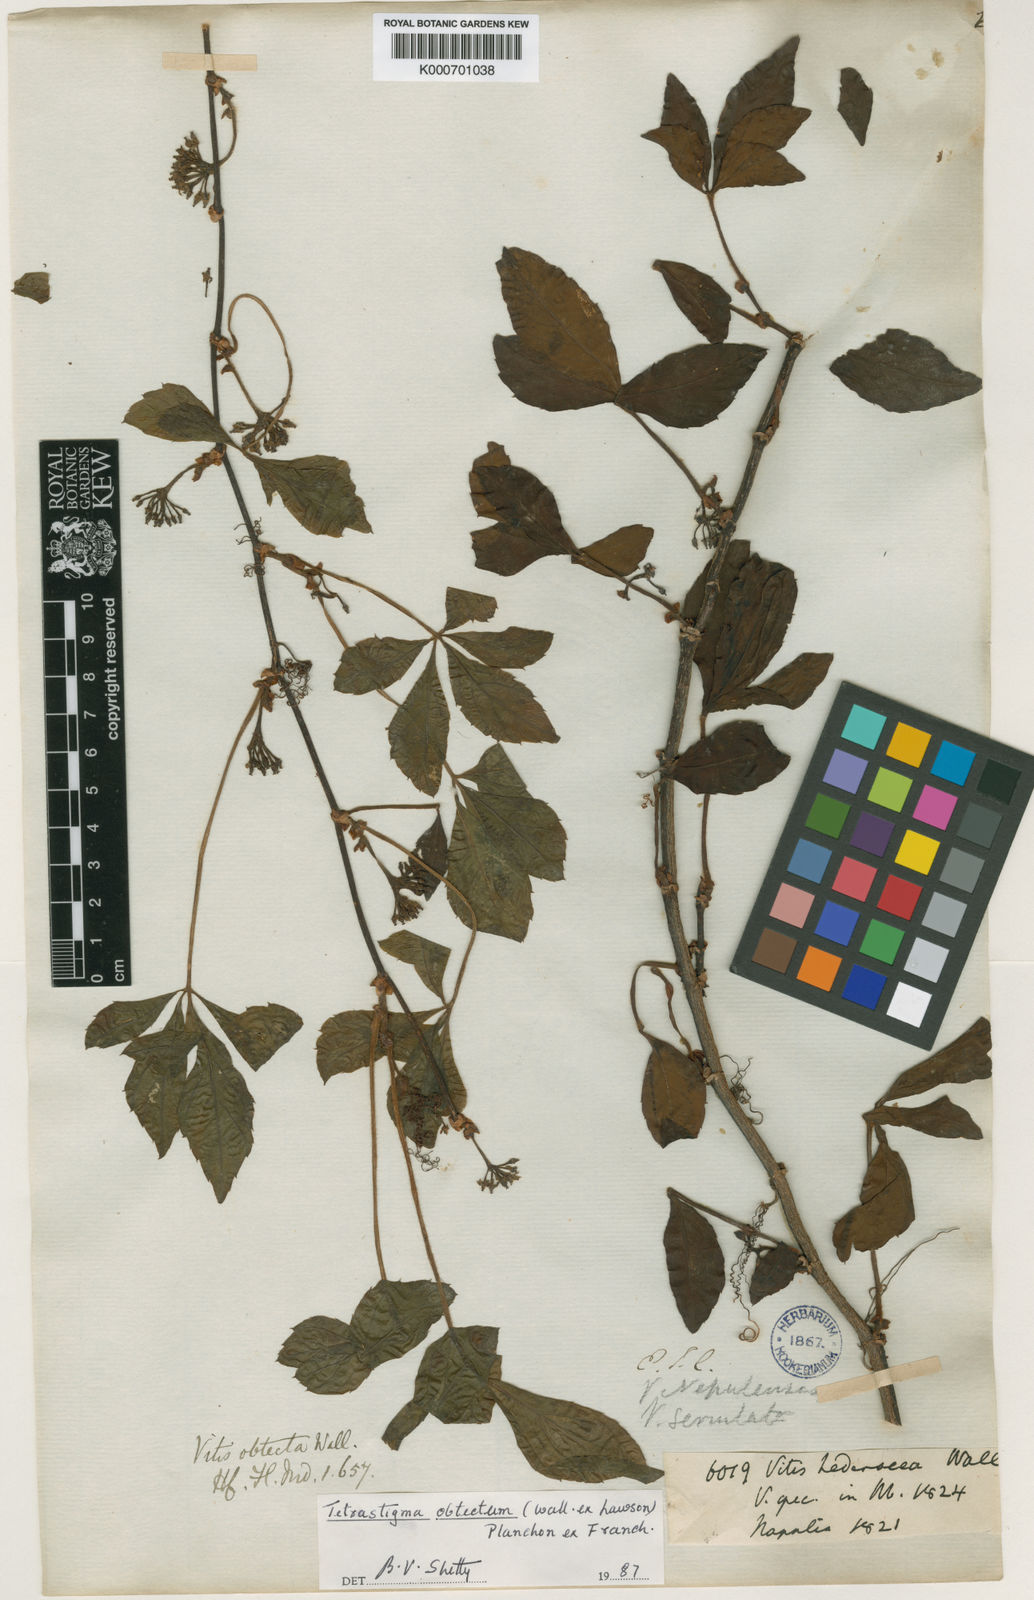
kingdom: Plantae
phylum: Tracheophyta
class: Magnoliopsida
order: Vitales
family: Vitaceae
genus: Tetrastigma
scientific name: Tetrastigma obtectum
